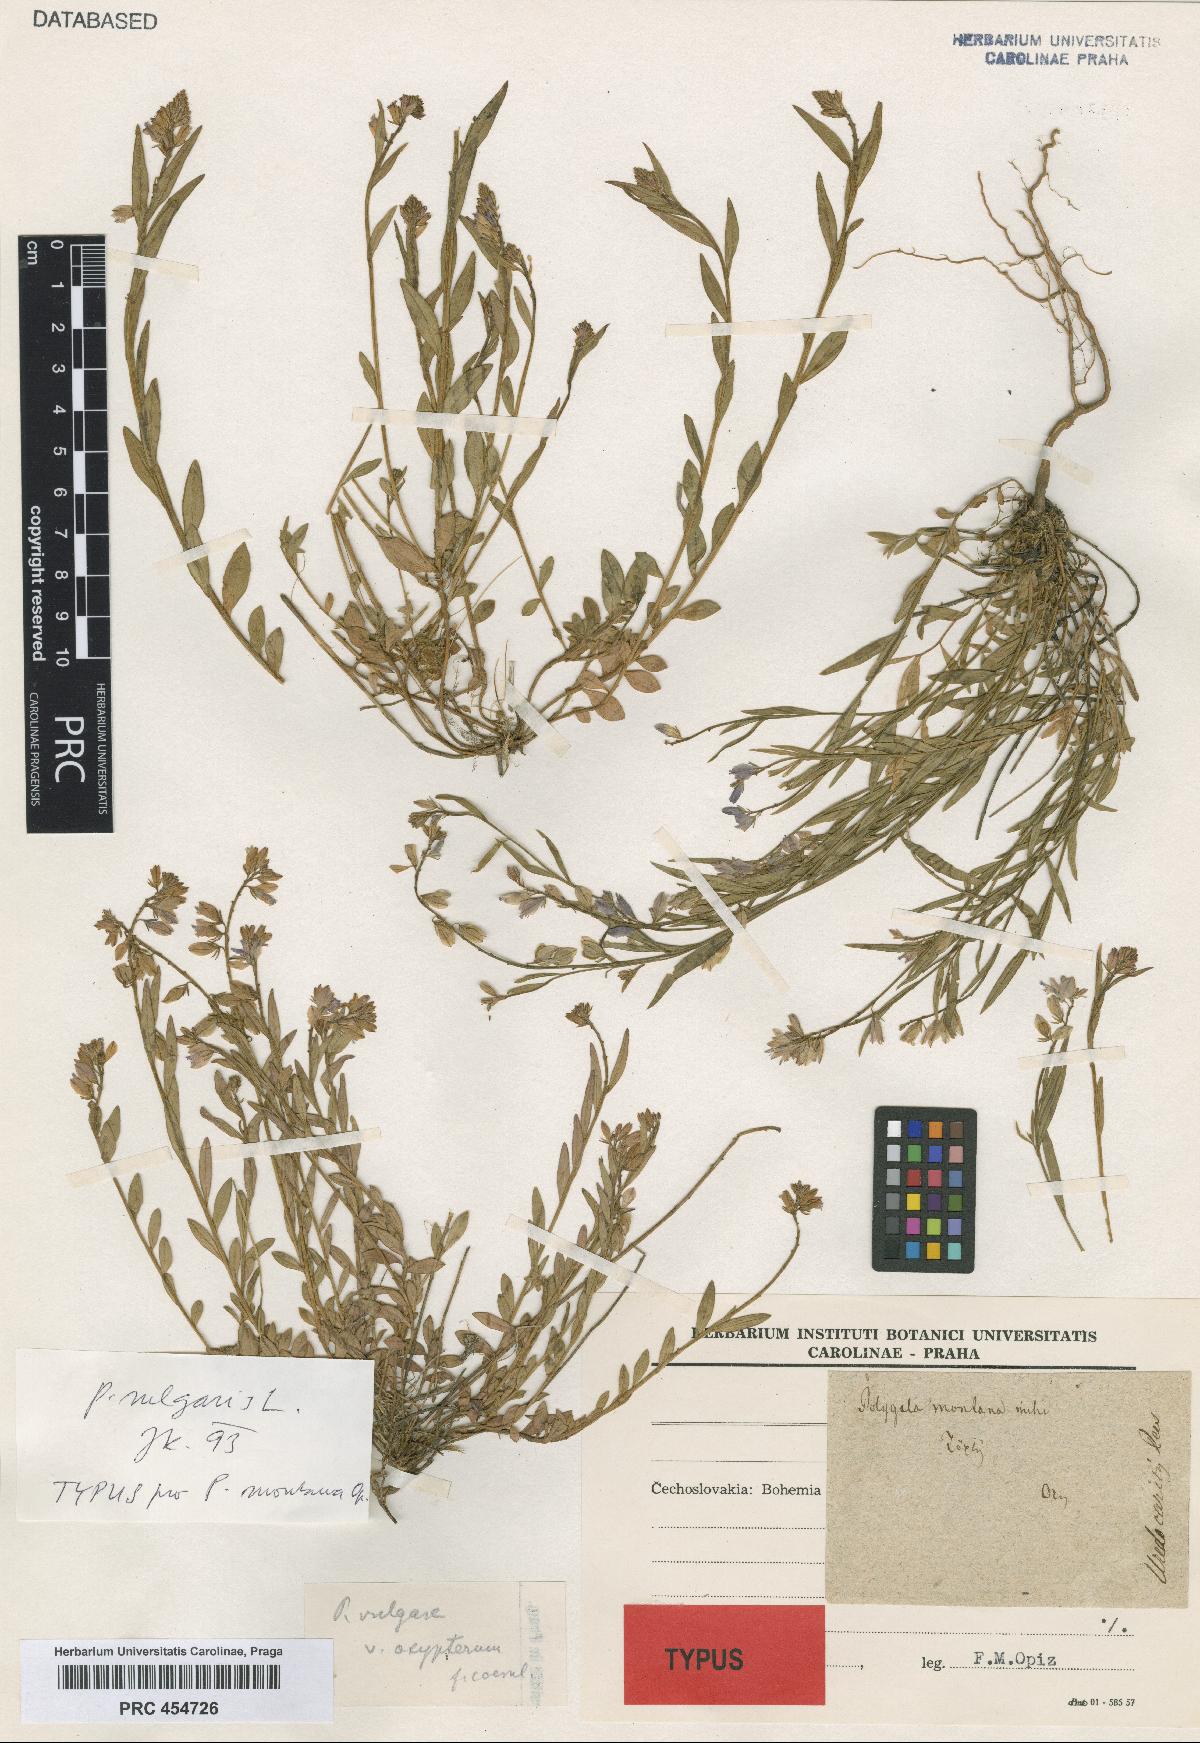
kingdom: Plantae
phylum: Tracheophyta
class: Magnoliopsida
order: Fabales
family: Polygalaceae
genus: Polygala
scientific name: Polygala vulgaris
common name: Common milkwort
